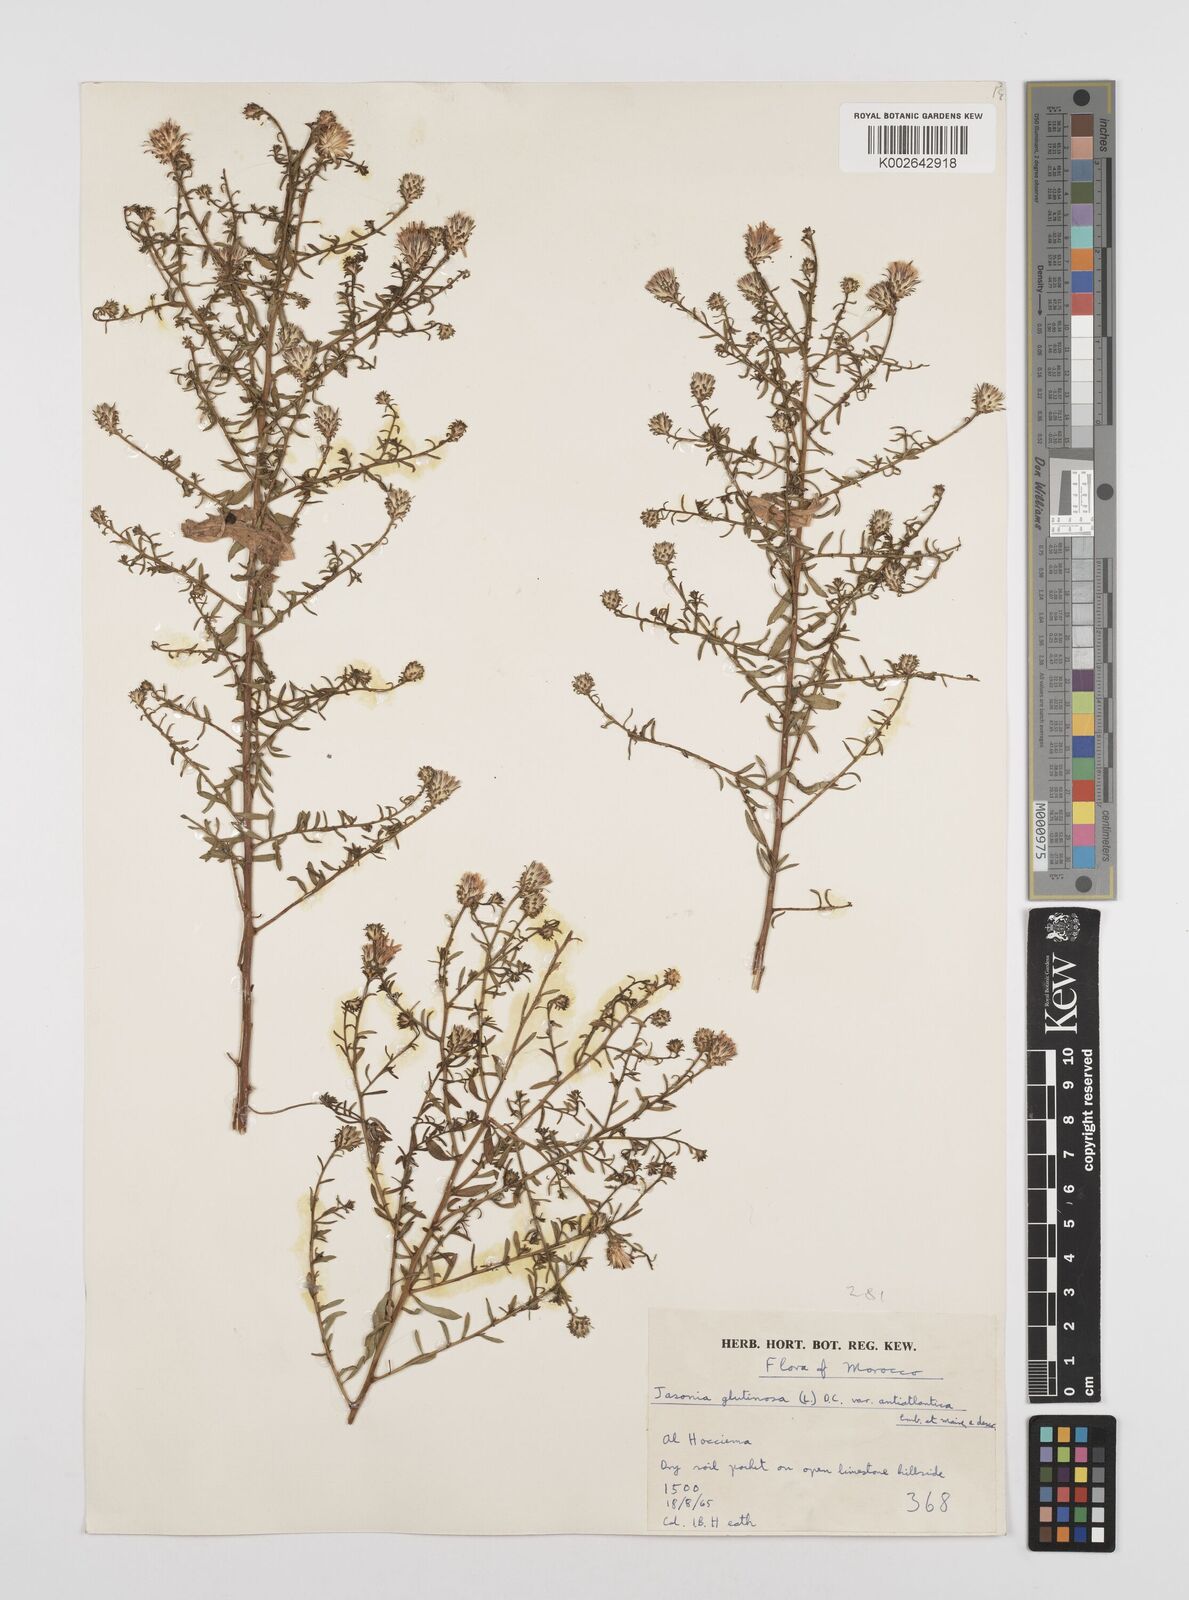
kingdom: Plantae
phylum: Tracheophyta
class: Magnoliopsida
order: Asterales
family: Asteraceae
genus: Chiliadenus
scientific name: Chiliadenus antiatlanticus
